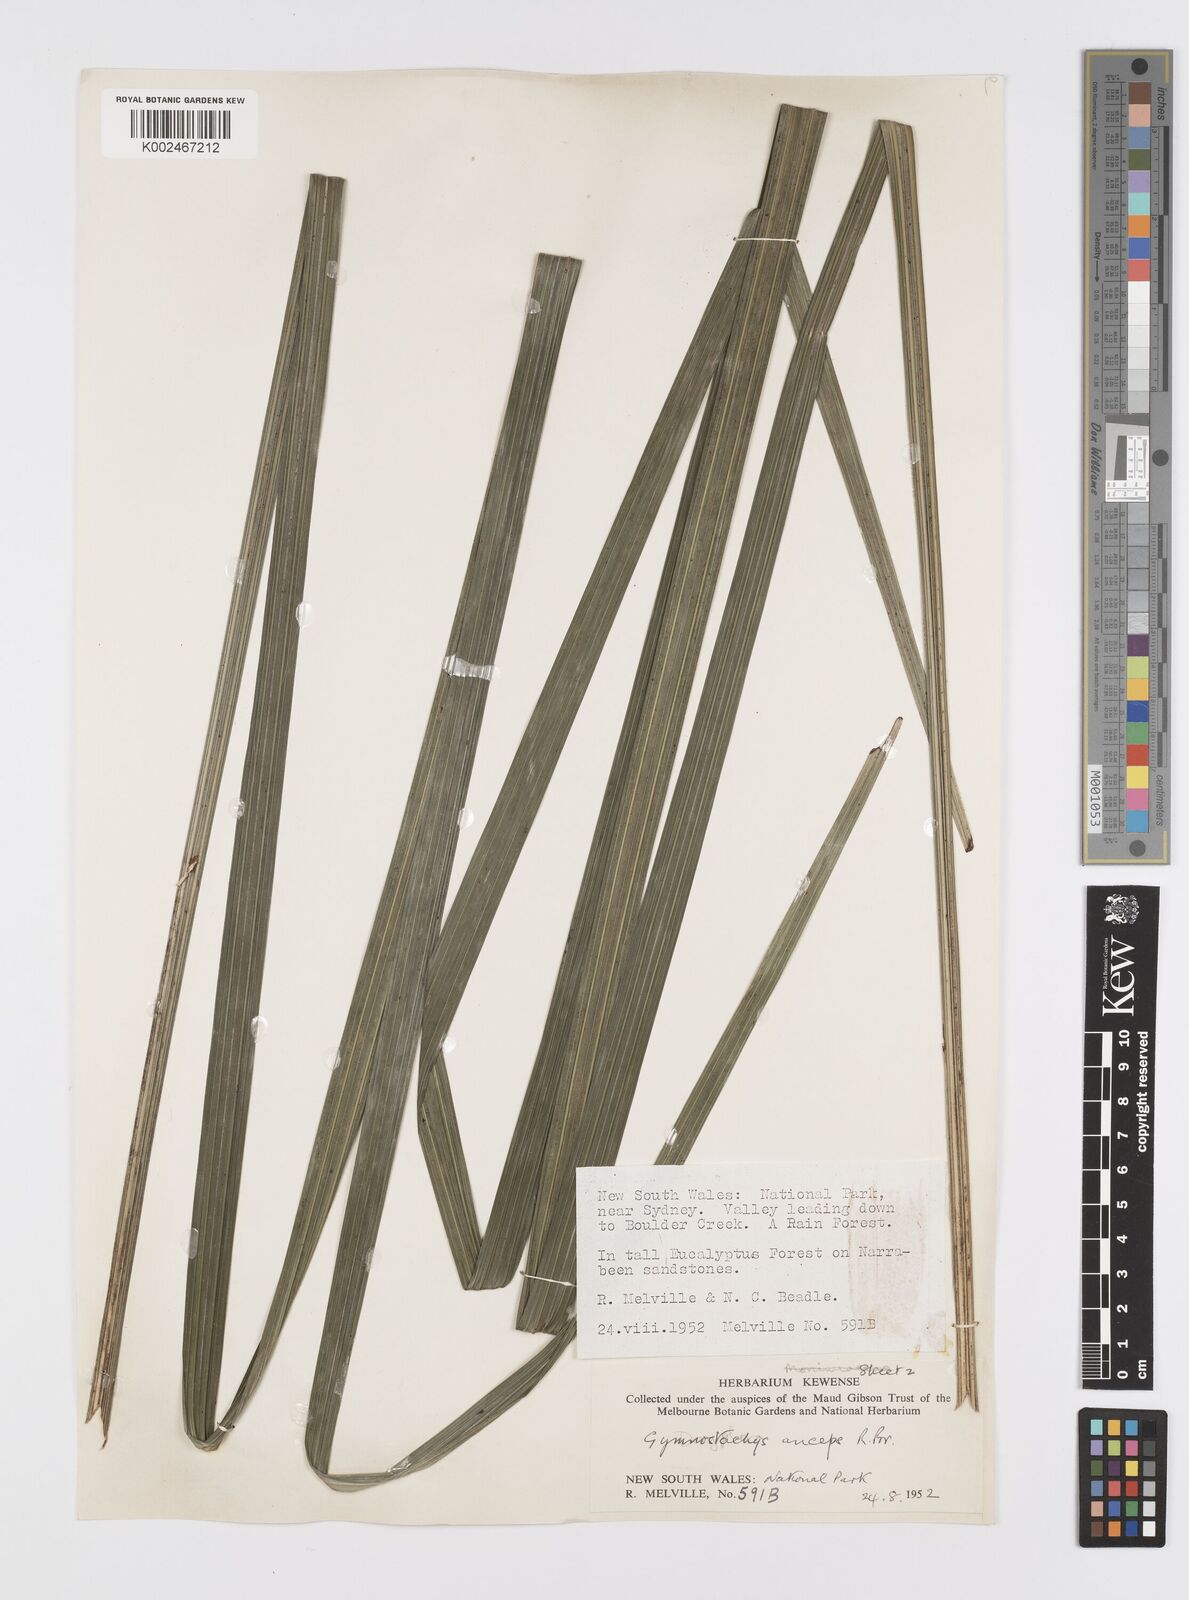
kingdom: Plantae
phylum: Tracheophyta
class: Liliopsida
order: Alismatales
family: Araceae
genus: Gymnostachys
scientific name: Gymnostachys anceps
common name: Settler's-flax
